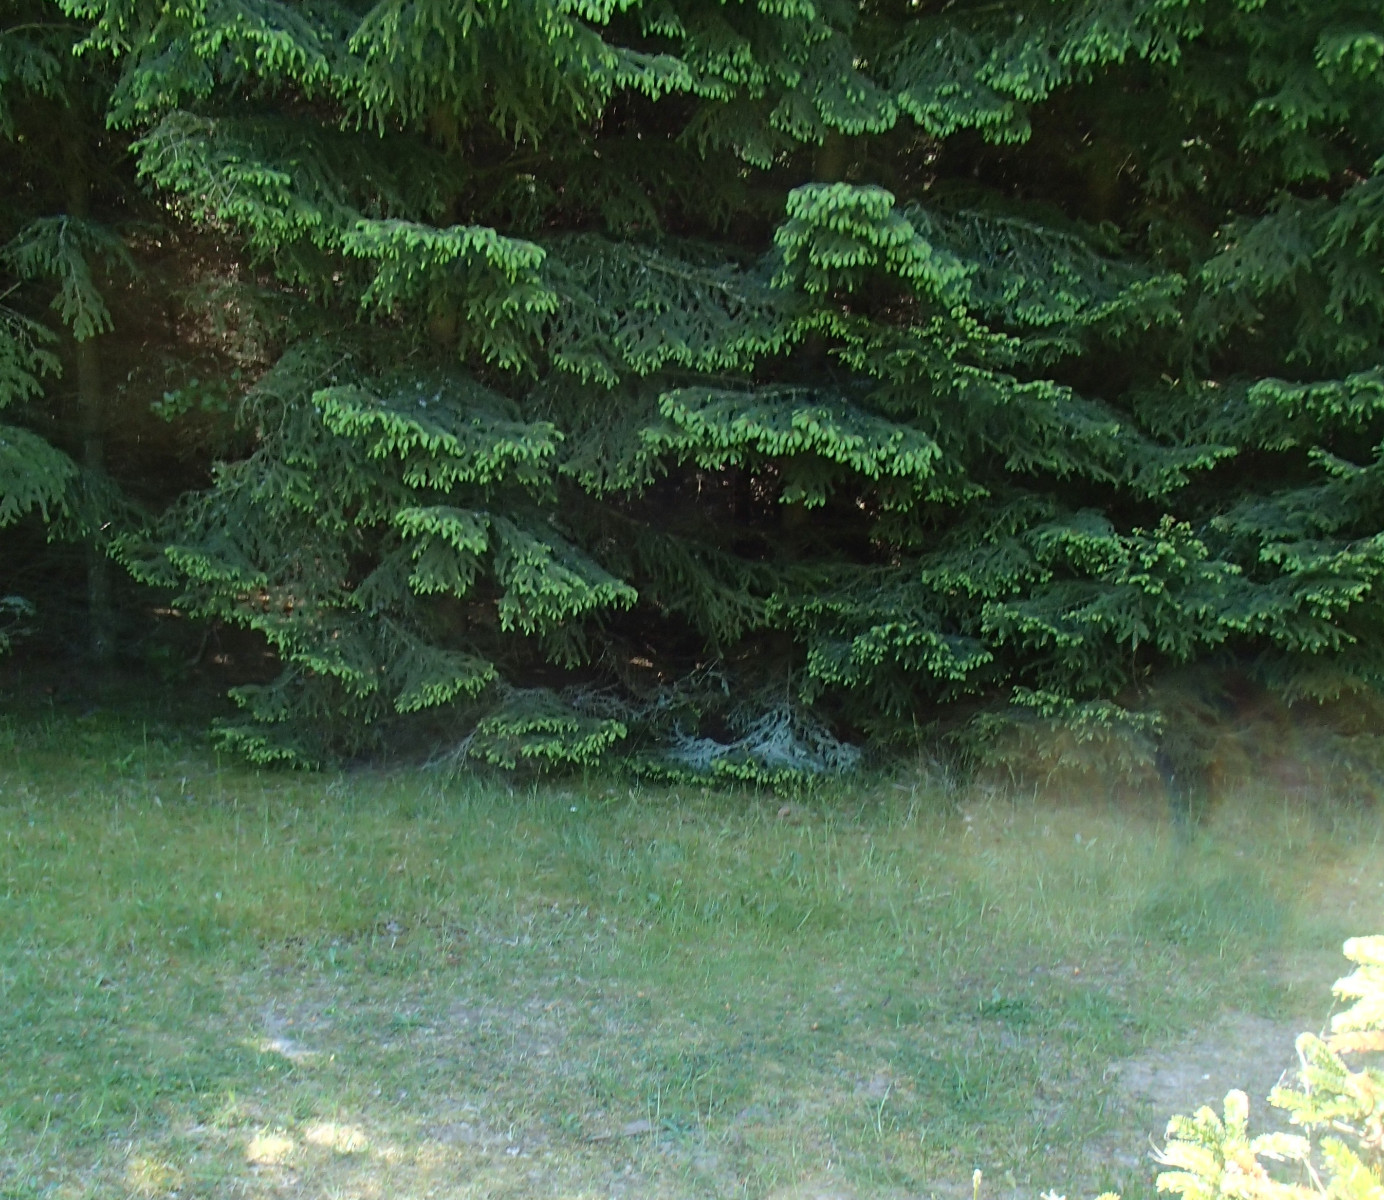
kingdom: Fungi
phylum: Ascomycota
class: Lecanoromycetes
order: Lecanorales
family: Byssolomataceae
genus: Fellhanera
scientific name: Fellhanera subtilis
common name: nåle-tallerkenlav
